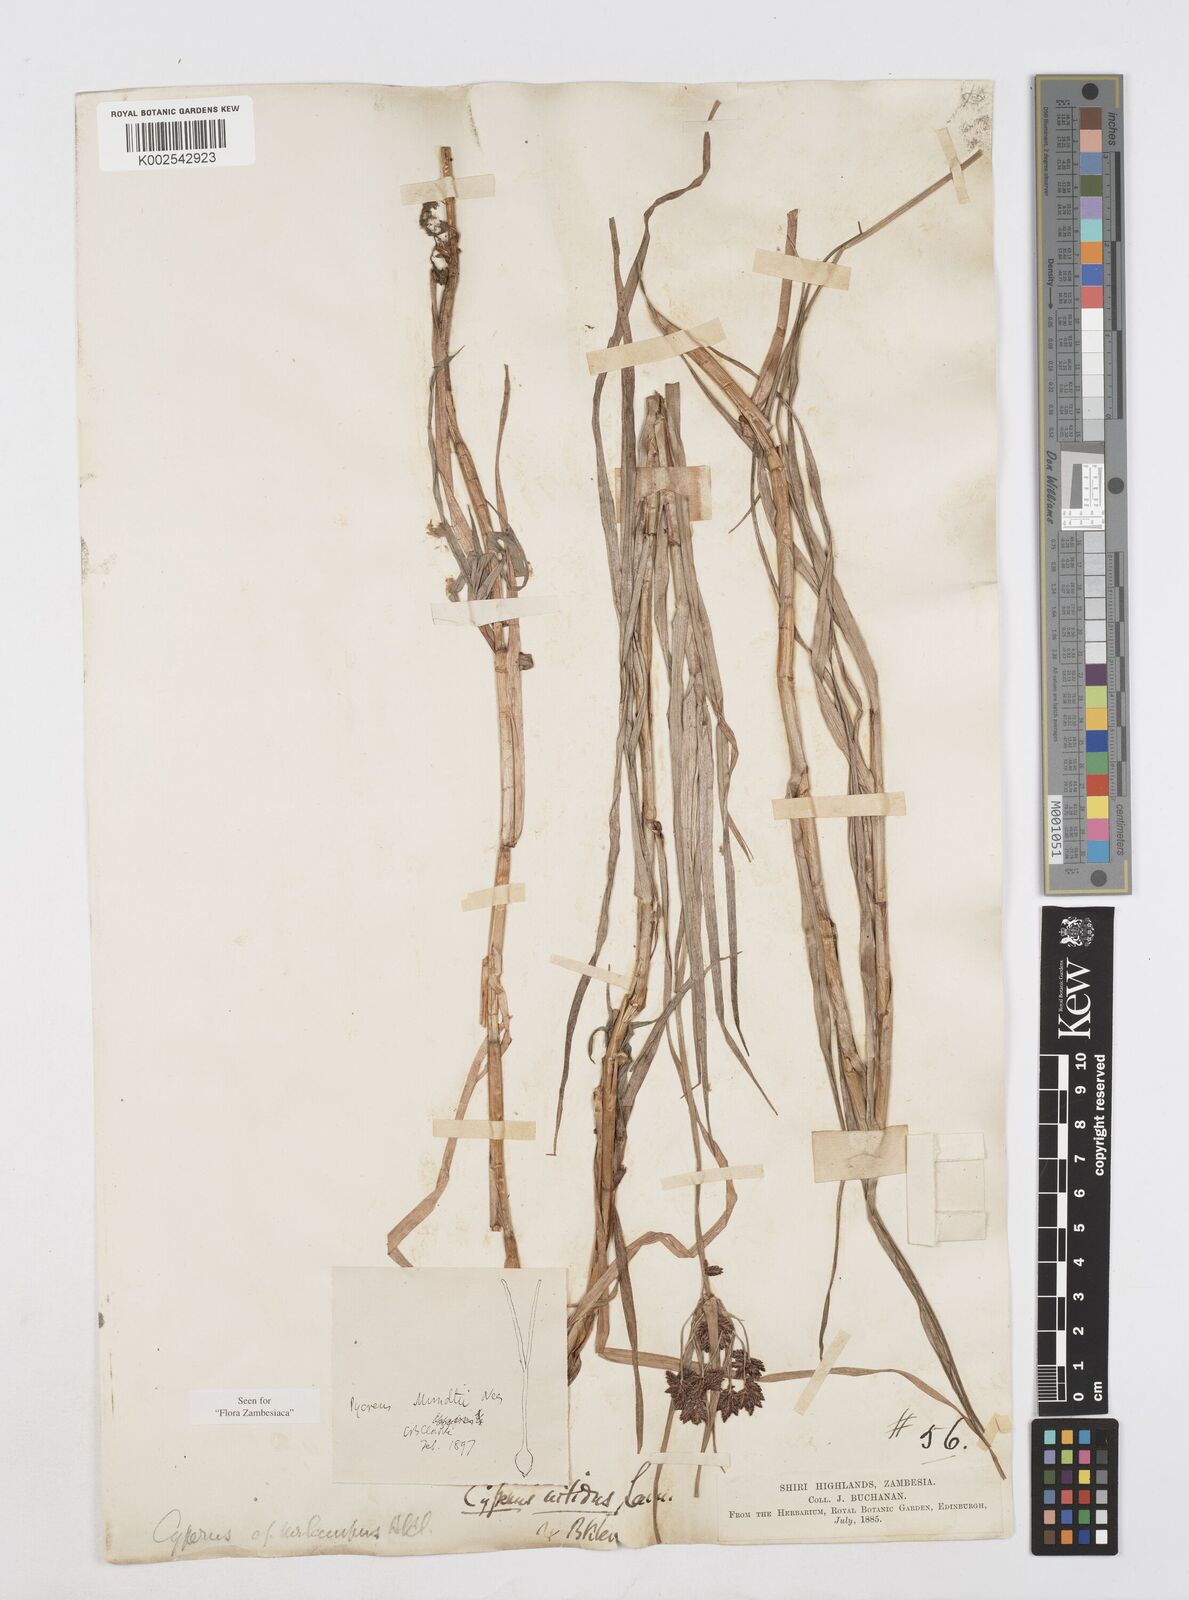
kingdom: Plantae
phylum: Tracheophyta
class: Liliopsida
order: Poales
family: Cyperaceae
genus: Cyperus
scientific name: Cyperus mundii
